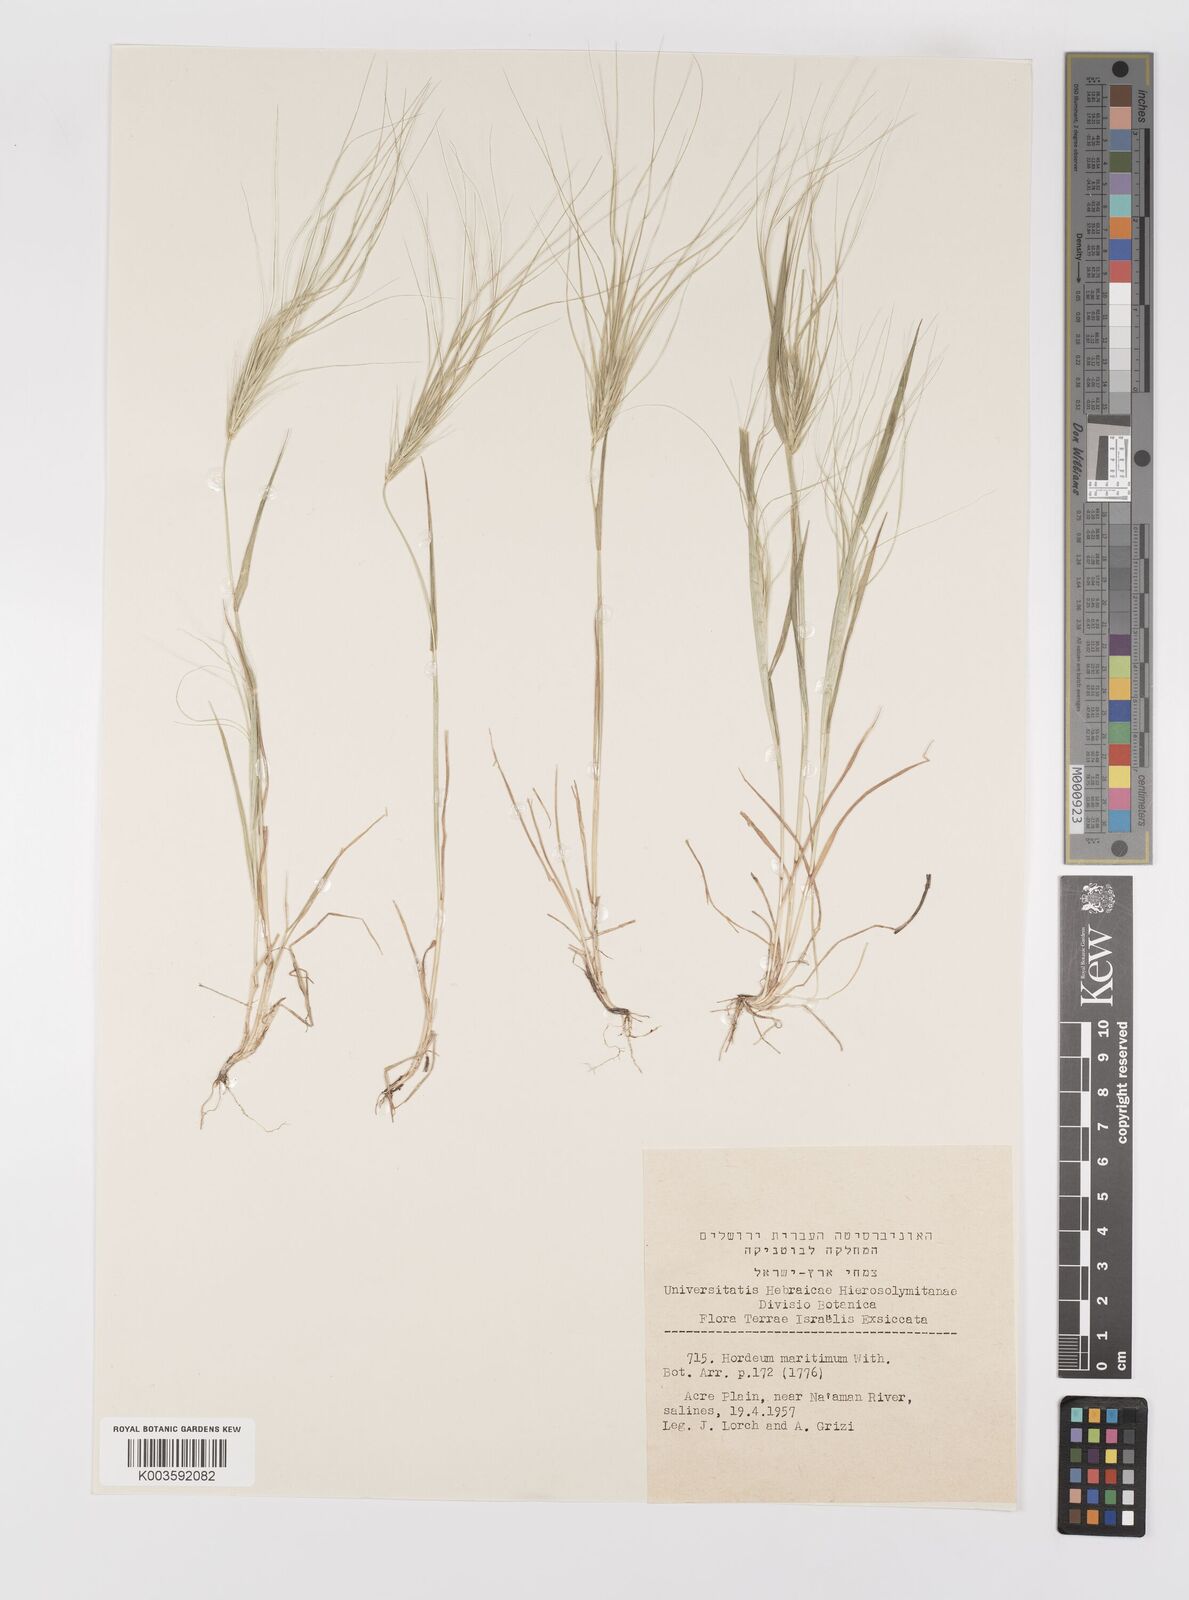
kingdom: Plantae
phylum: Tracheophyta
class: Liliopsida
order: Poales
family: Poaceae
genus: Taeniatherum
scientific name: Taeniatherum caput-medusae
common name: Medusahead
